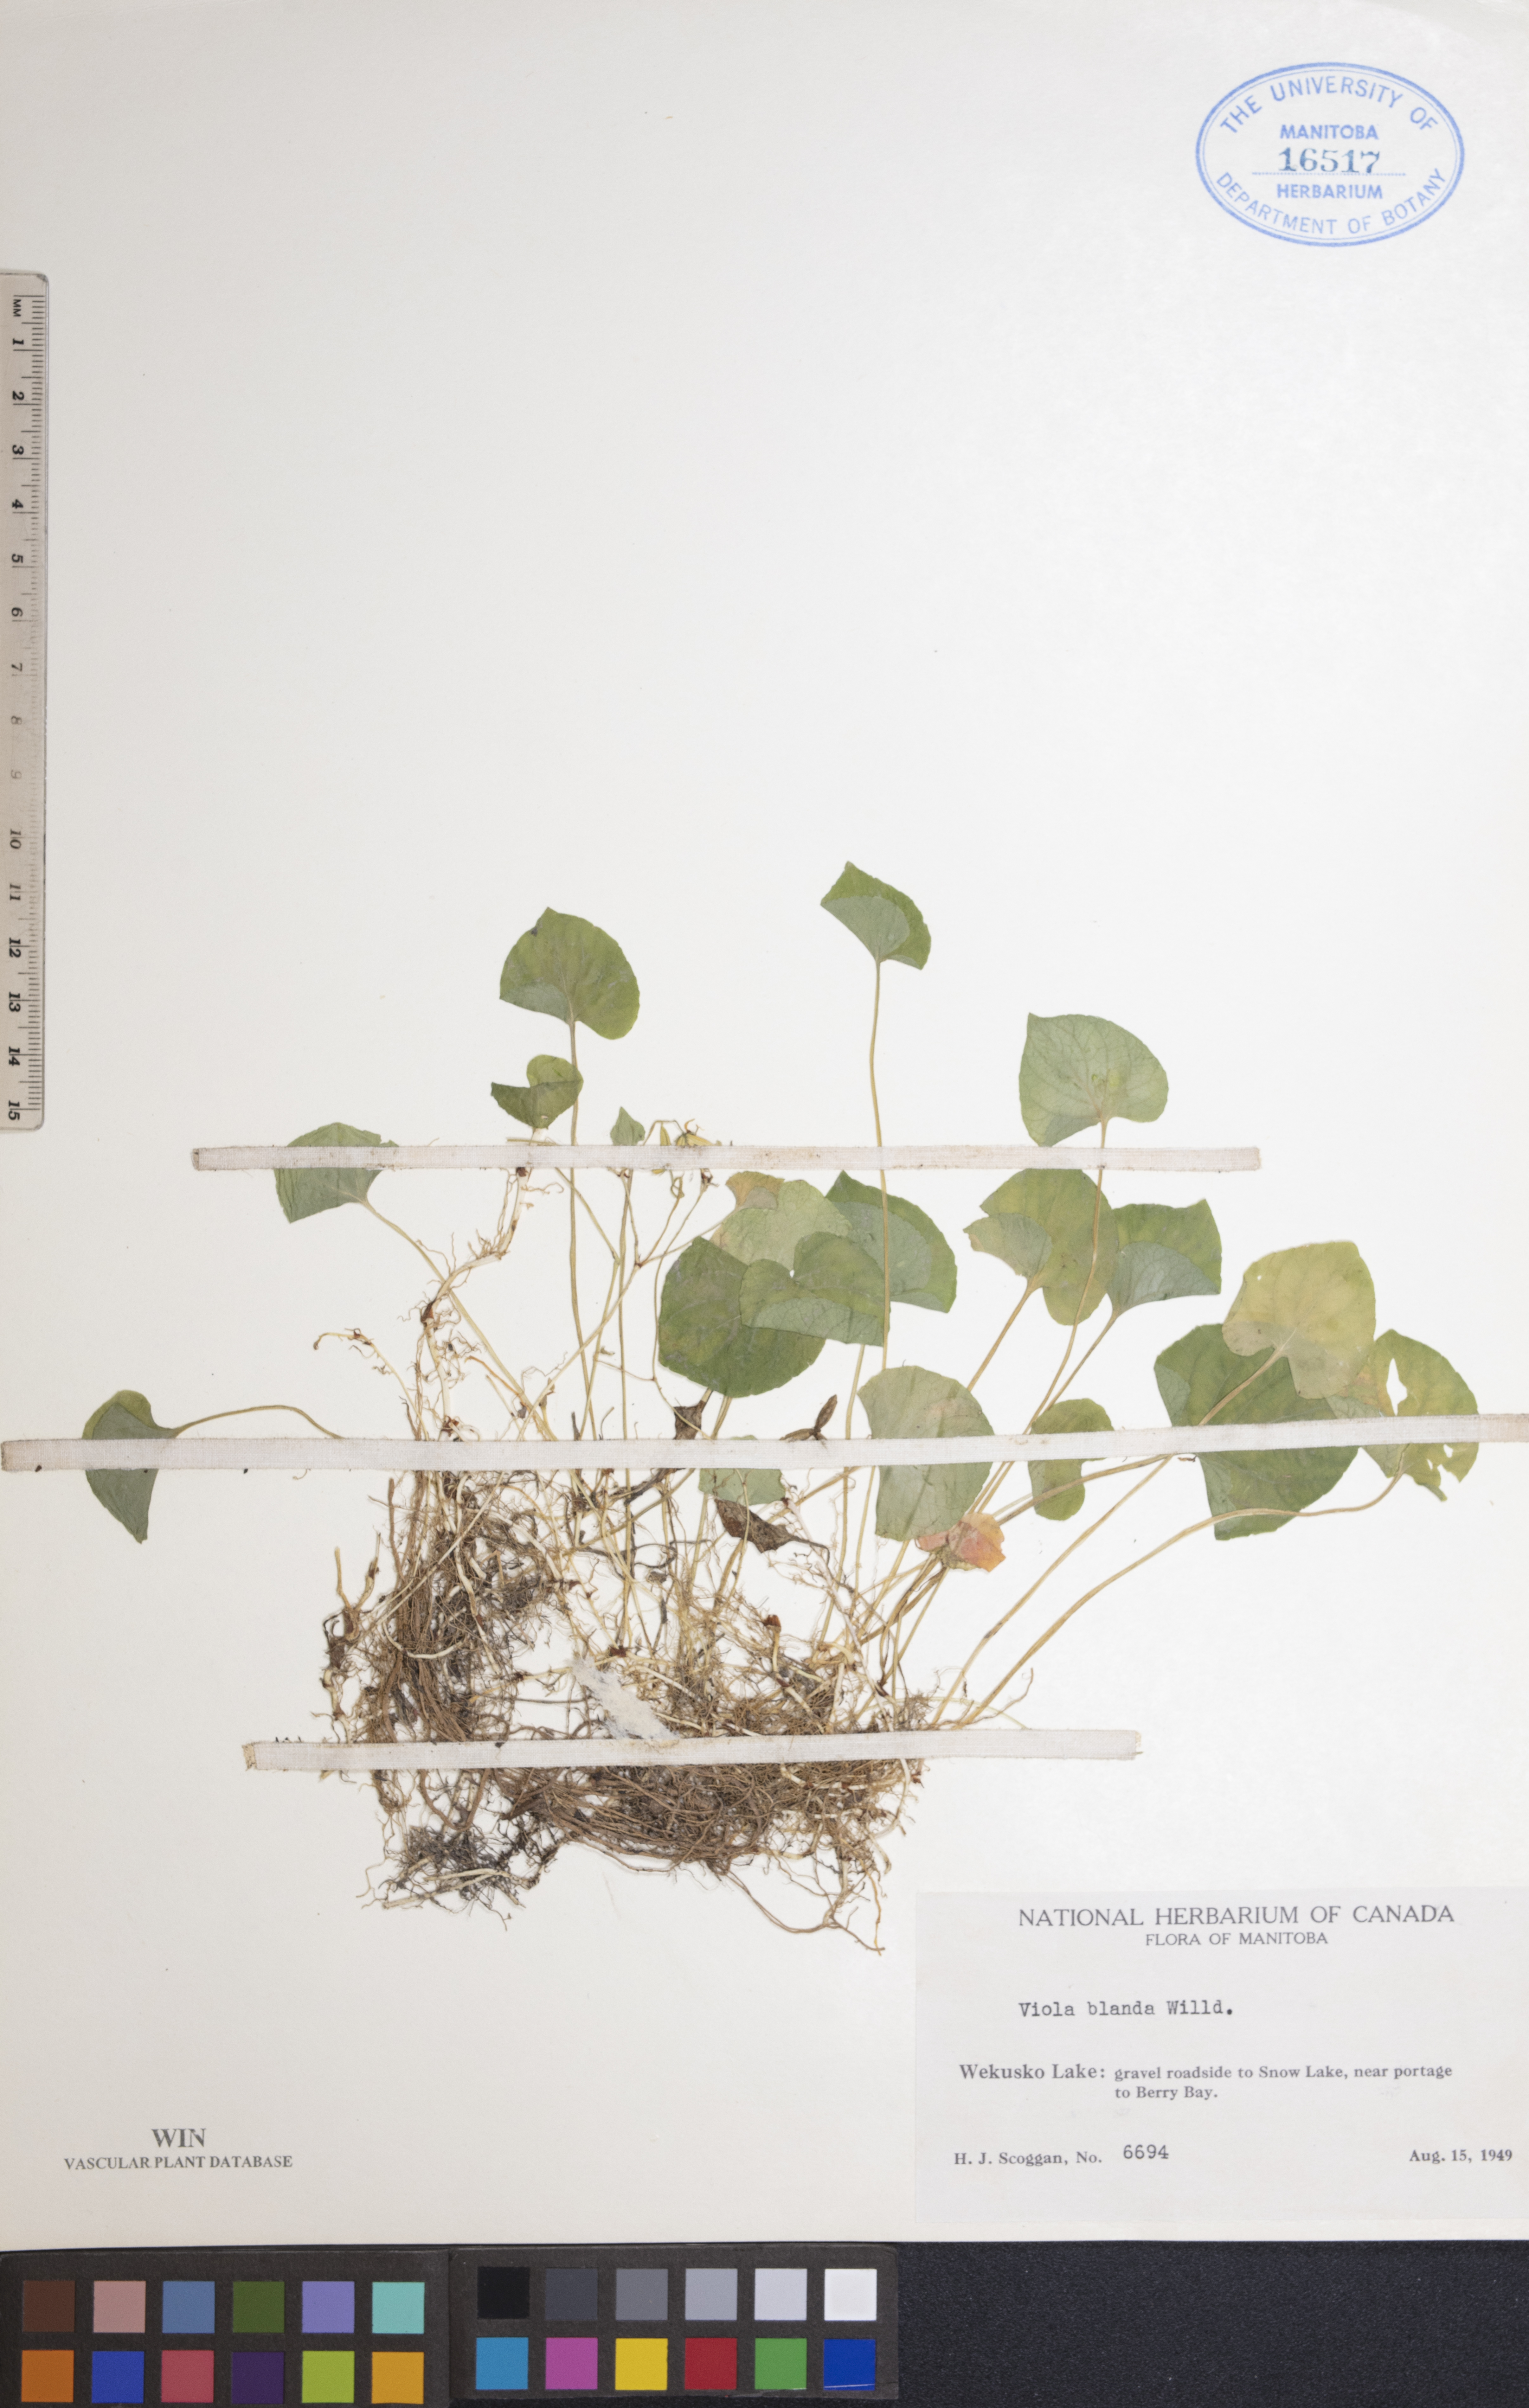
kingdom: Plantae
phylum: Tracheophyta
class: Magnoliopsida
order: Malpighiales
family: Violaceae
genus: Viola
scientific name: Viola blanda
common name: Sweet white violet
